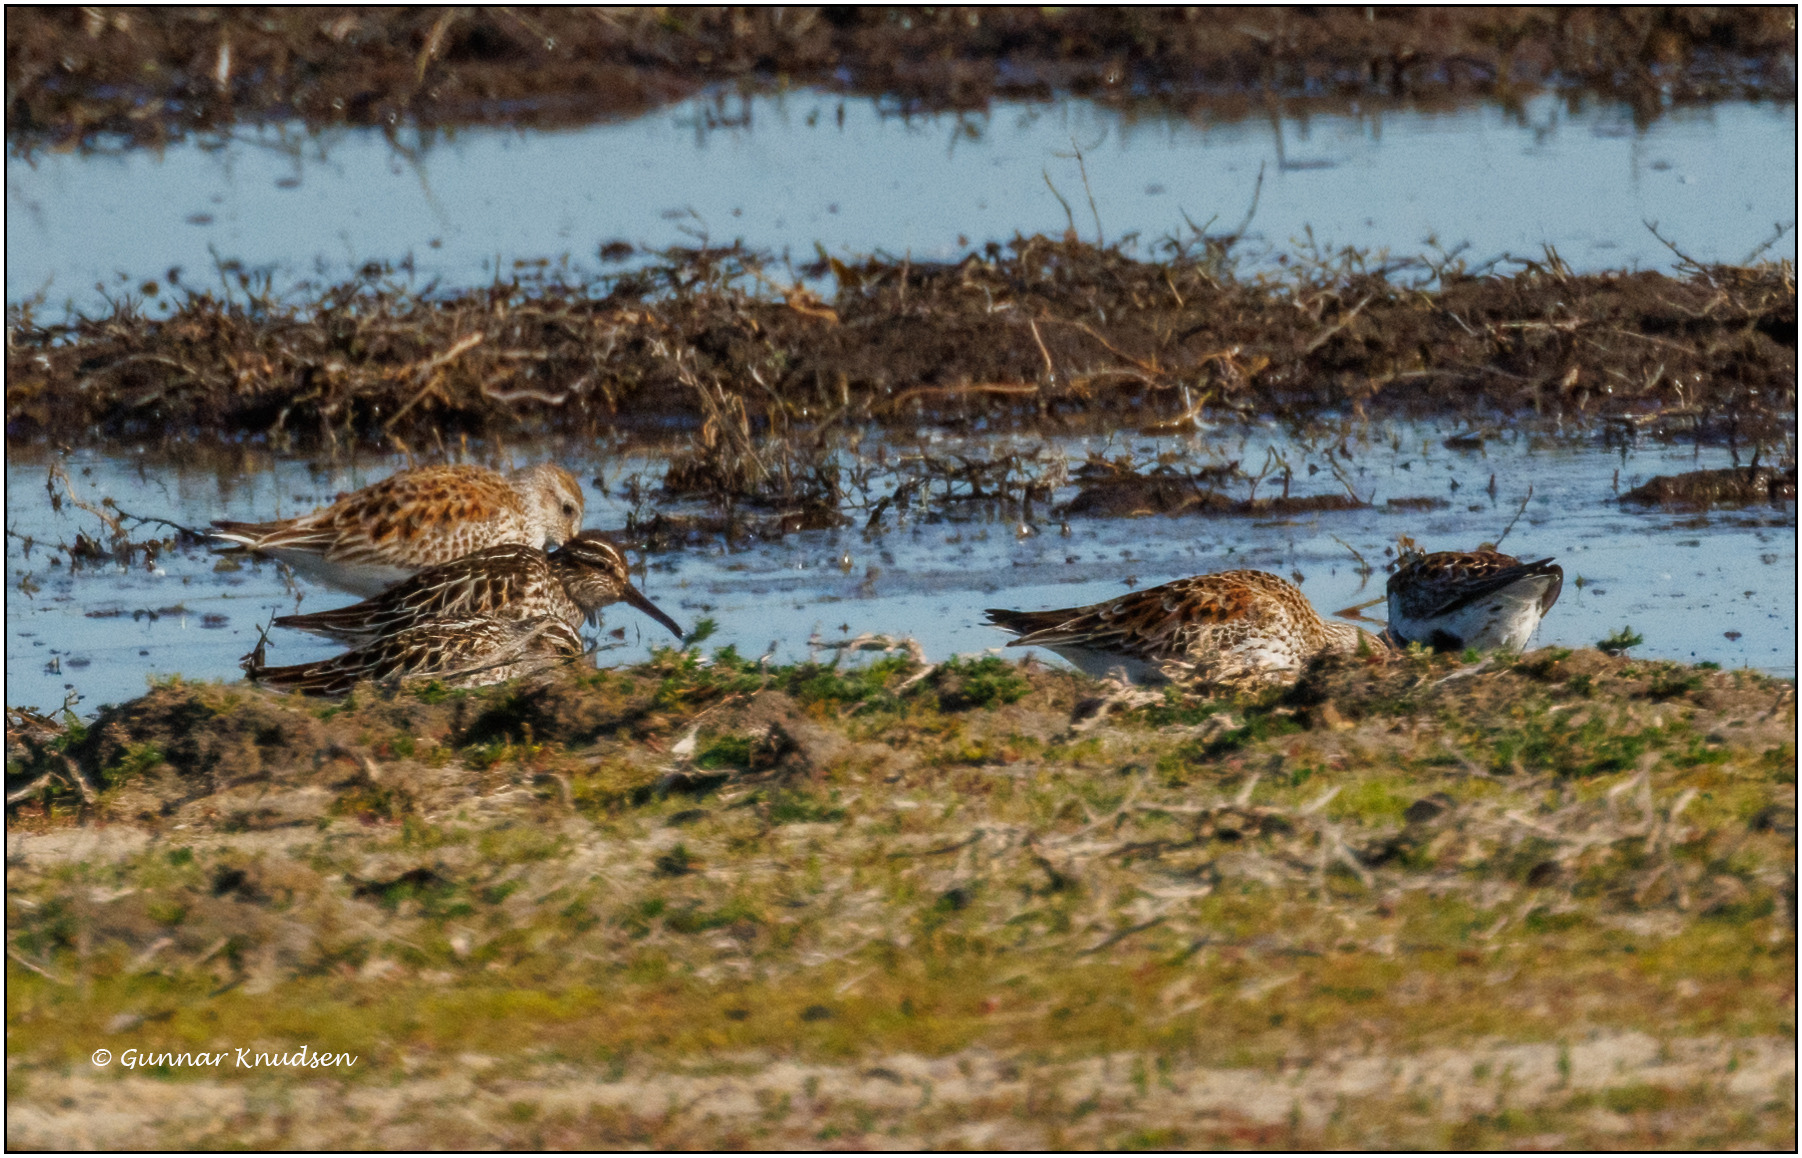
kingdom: Animalia
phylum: Chordata
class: Aves
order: Charadriiformes
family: Scolopacidae
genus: Calidris
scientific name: Calidris falcinellus
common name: Kærløber
